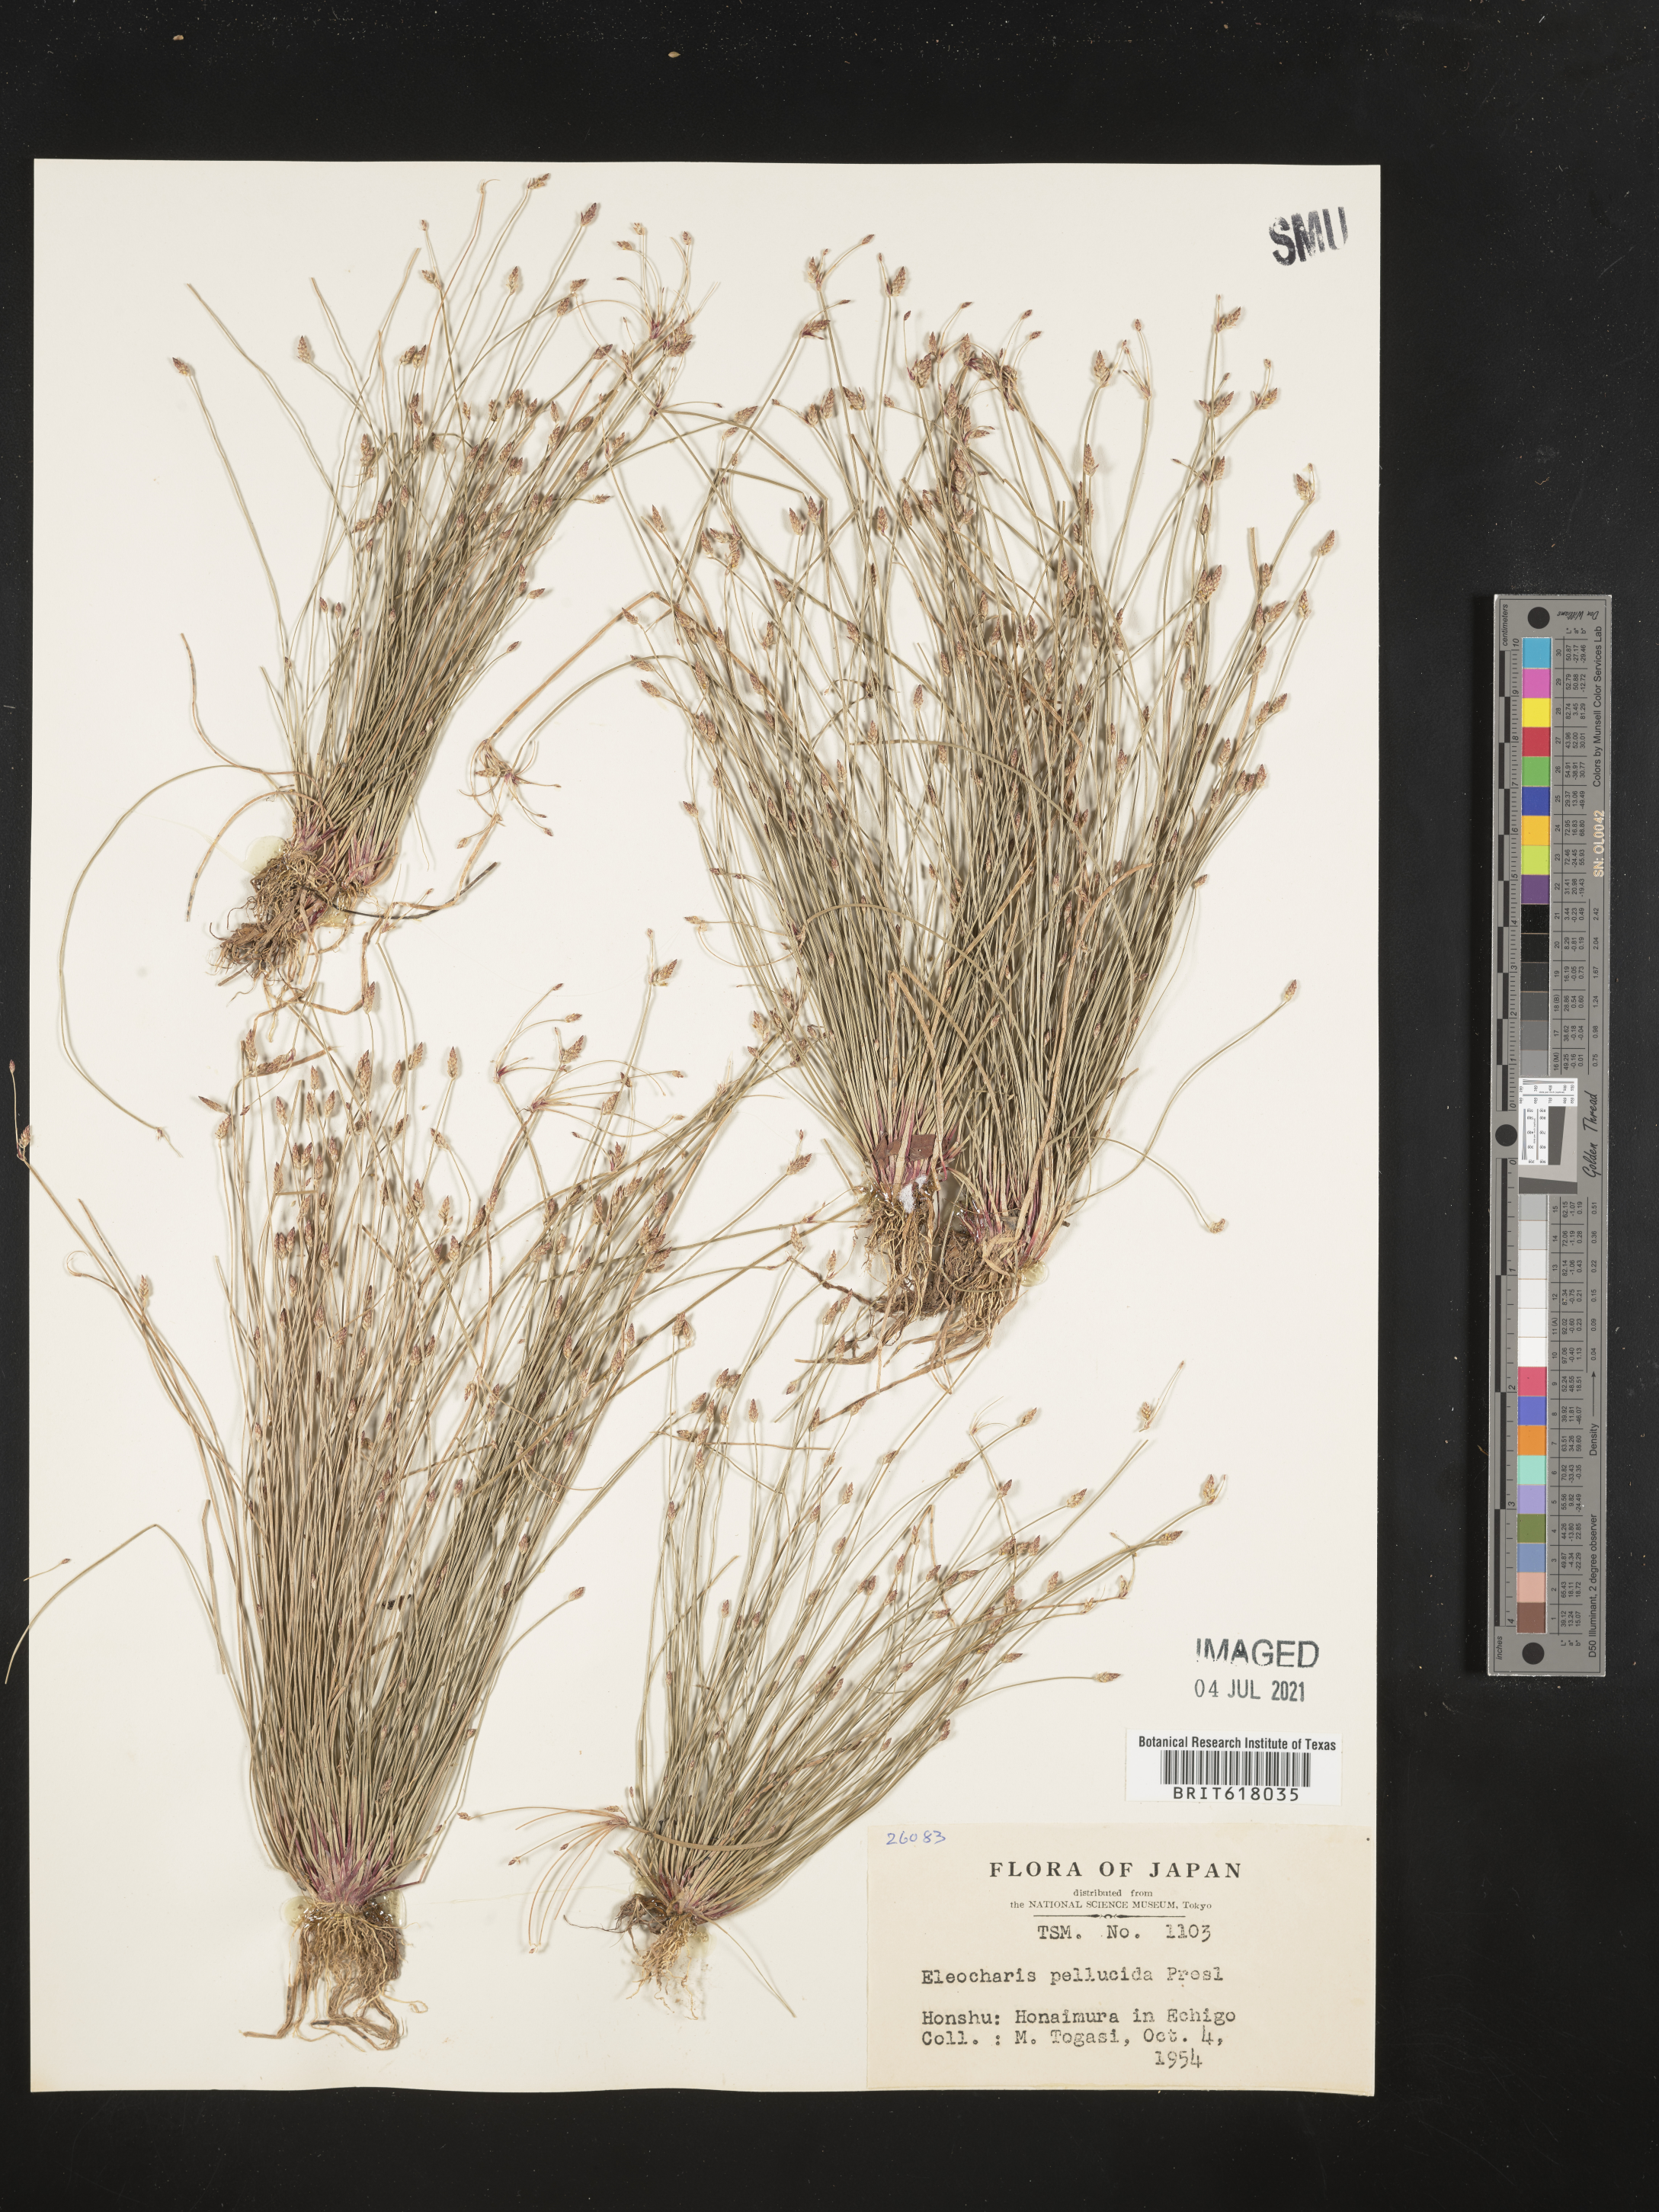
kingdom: Plantae
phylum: Tracheophyta
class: Liliopsida
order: Poales
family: Cyperaceae
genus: Eleocharis
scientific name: Eleocharis pellucida
